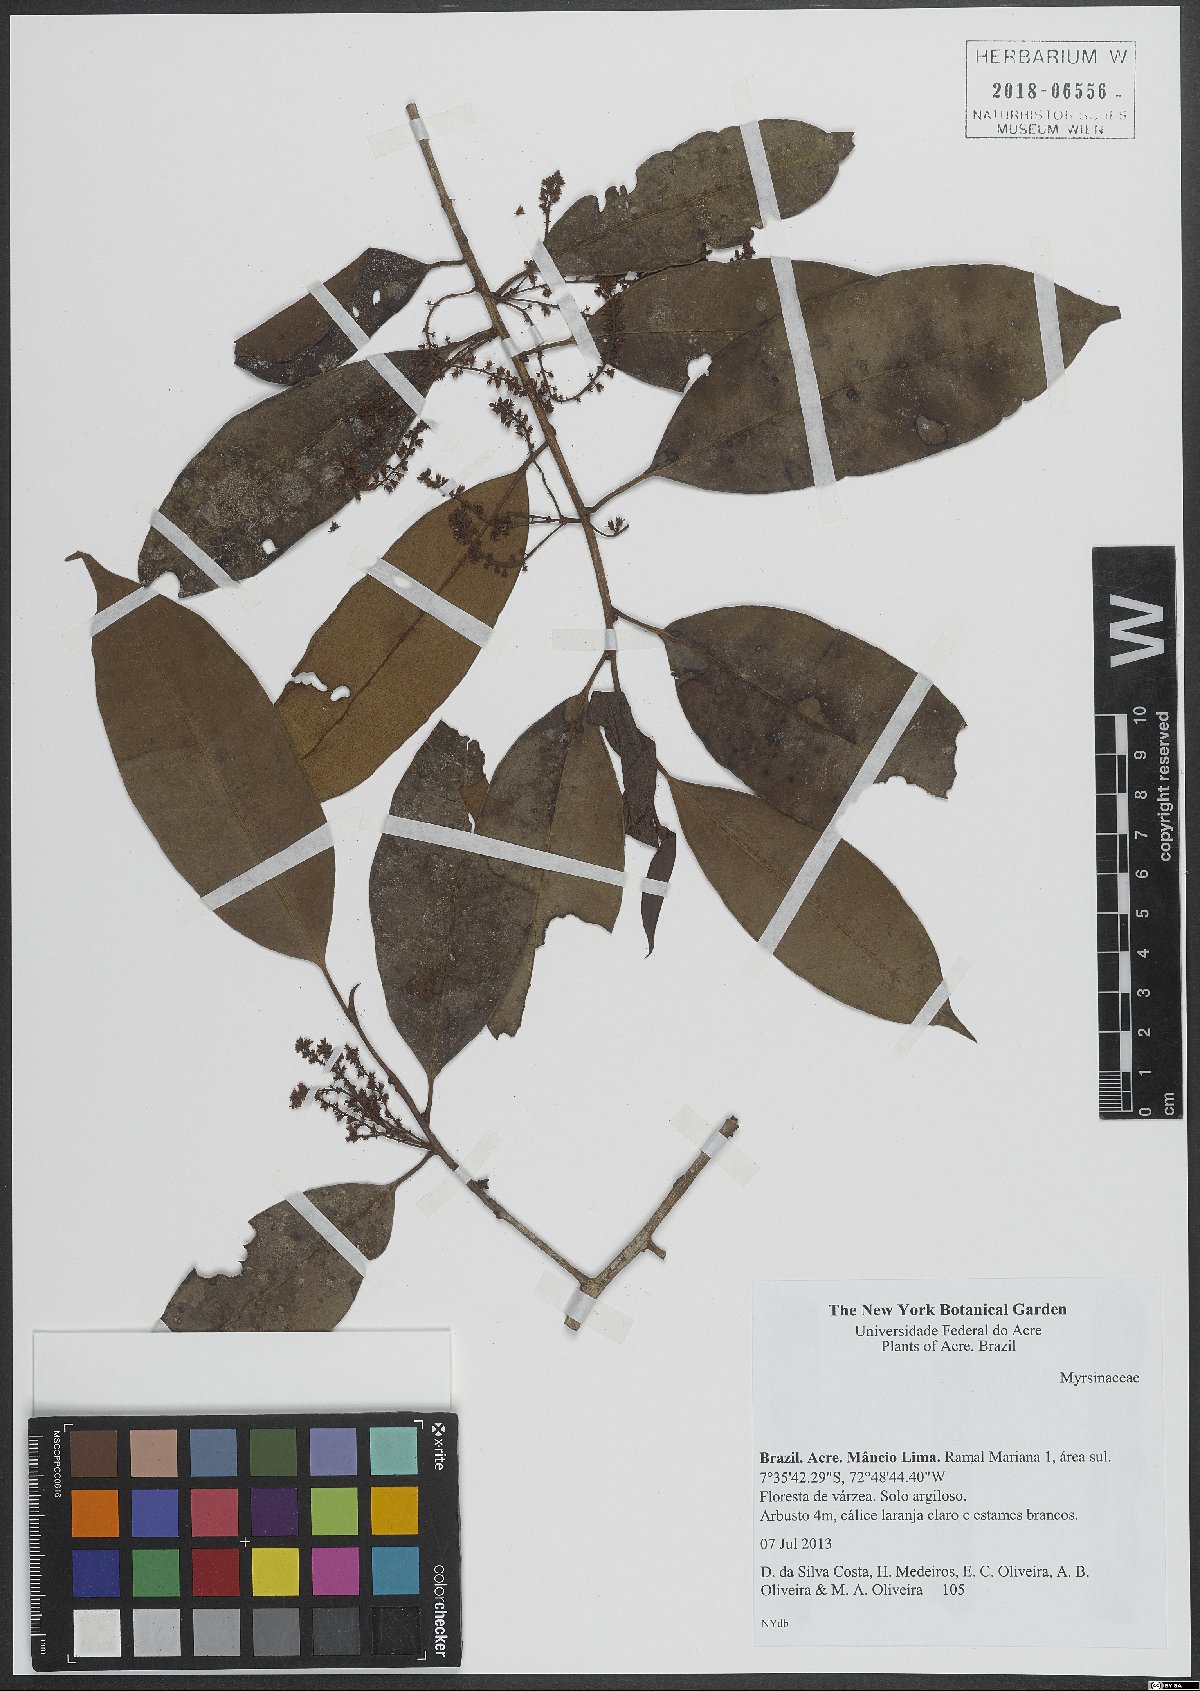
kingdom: Plantae
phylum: Tracheophyta
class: Magnoliopsida
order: Ericales
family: Primulaceae
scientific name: Primulaceae
